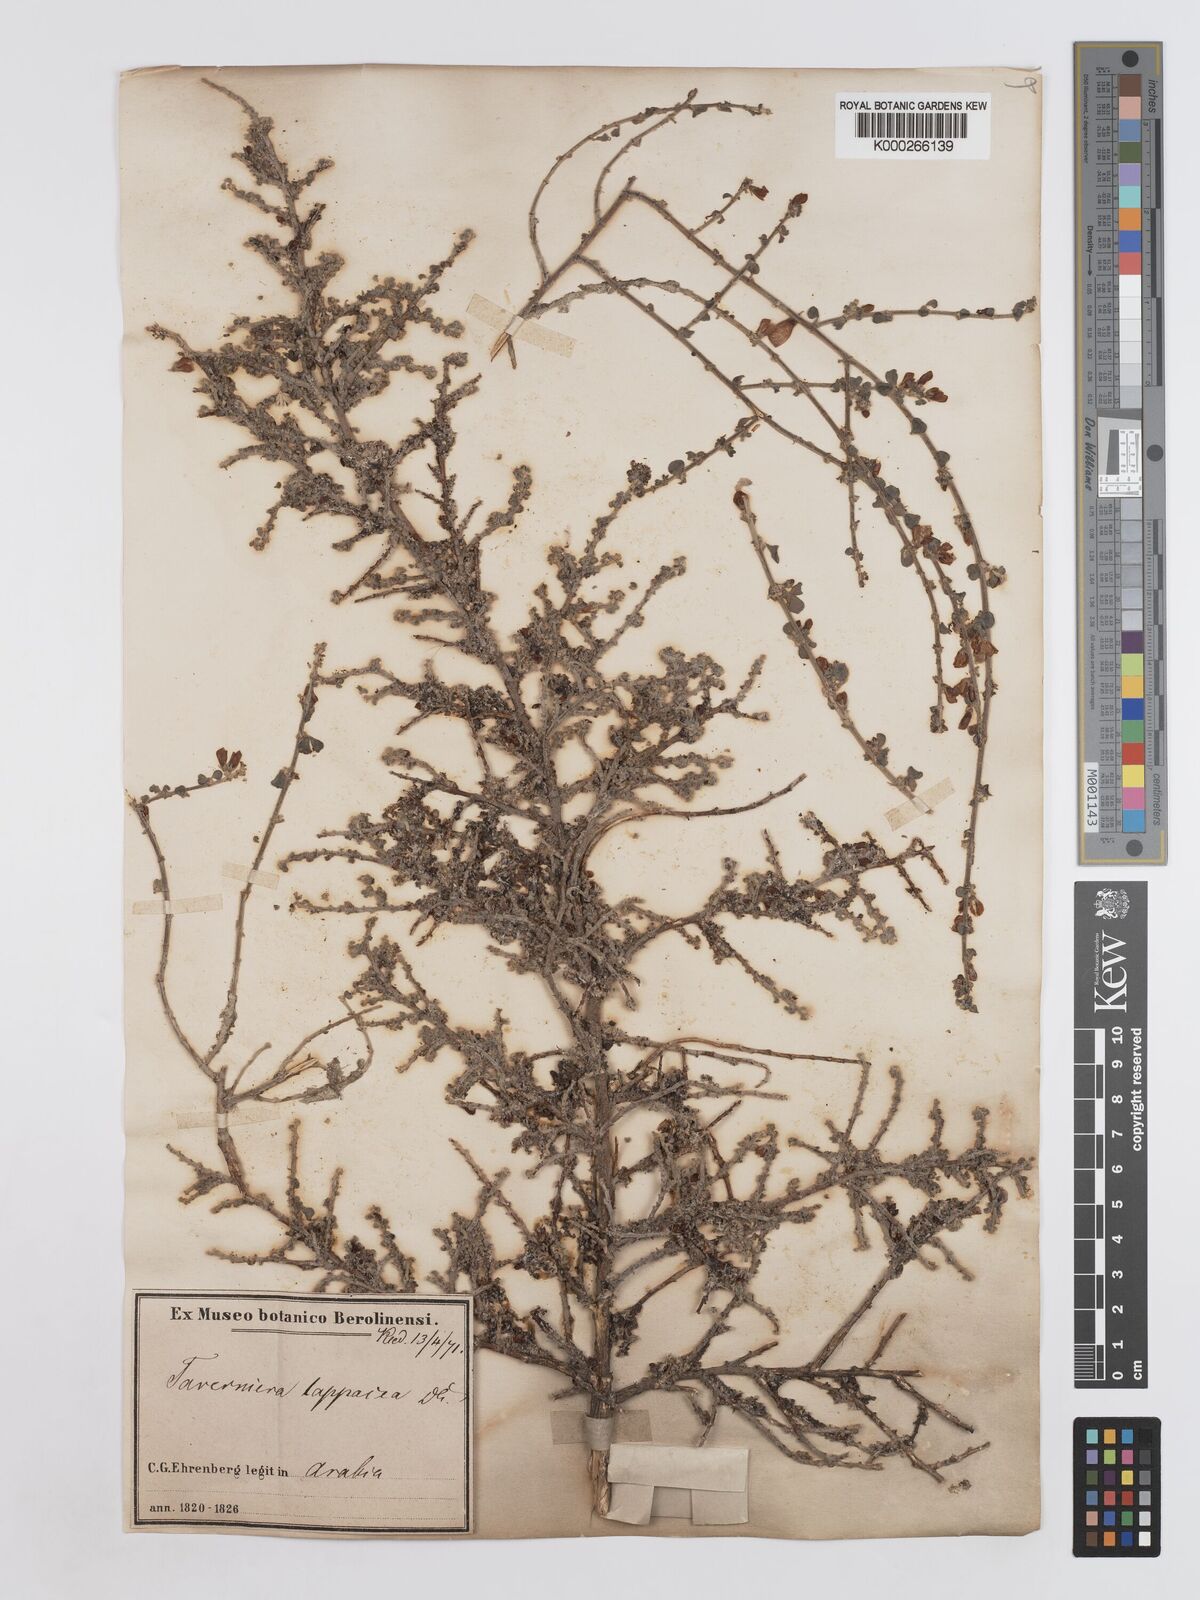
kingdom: Plantae
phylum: Tracheophyta
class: Magnoliopsida
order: Fabales
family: Fabaceae
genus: Taverniera
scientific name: Taverniera lappacea
